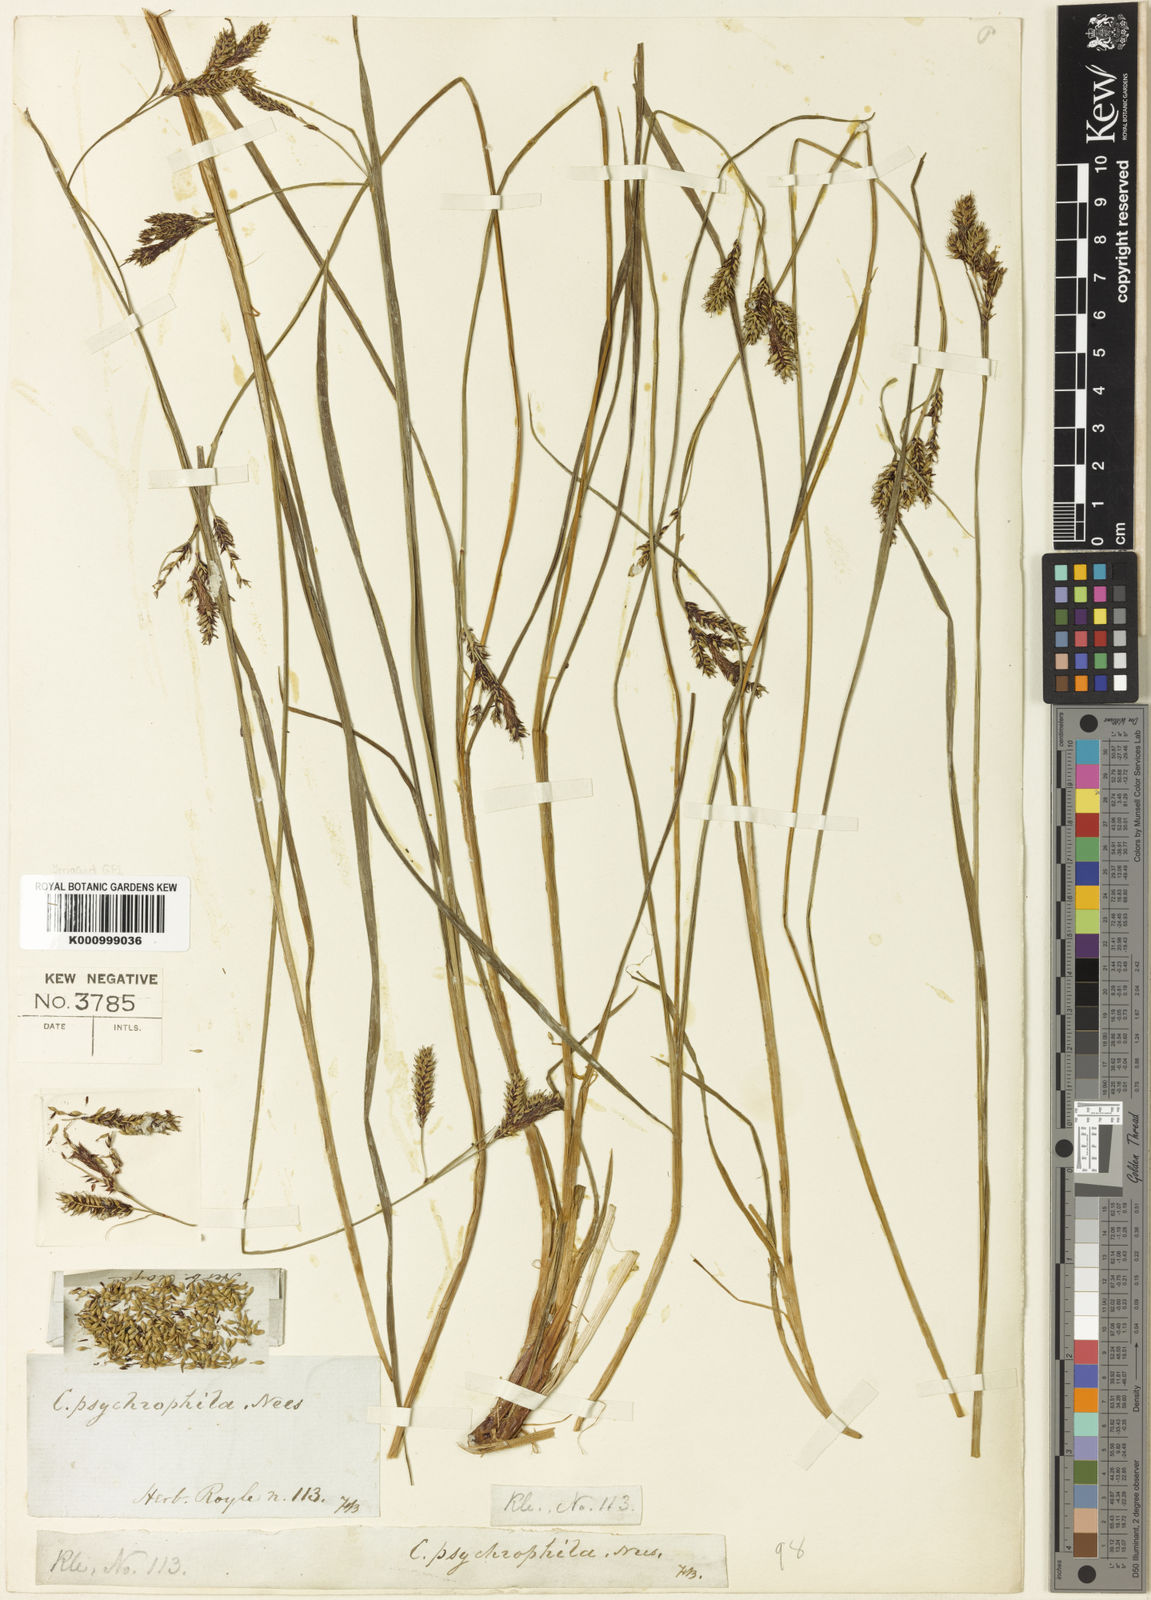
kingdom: Plantae
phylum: Tracheophyta
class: Liliopsida
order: Poales
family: Cyperaceae
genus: Carex
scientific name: Carex psychrophila
